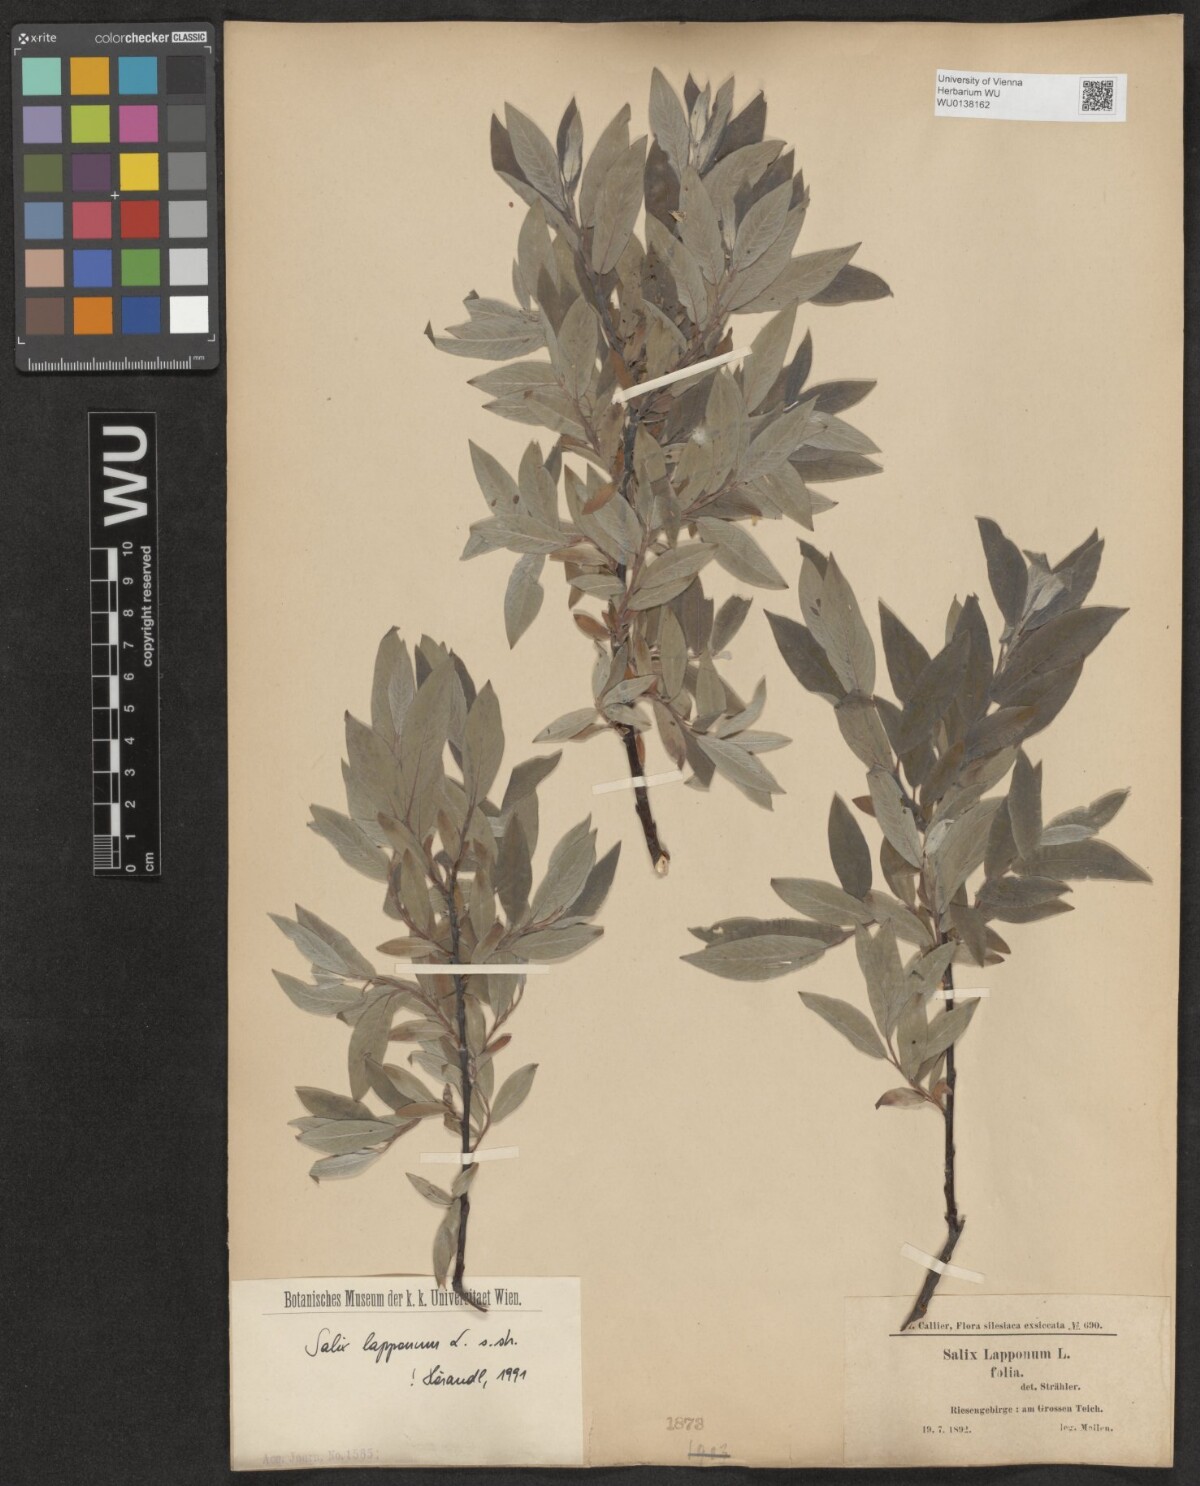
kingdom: Plantae
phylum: Tracheophyta
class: Magnoliopsida
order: Malpighiales
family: Salicaceae
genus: Salix
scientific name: Salix lapponum
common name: Downy willow
